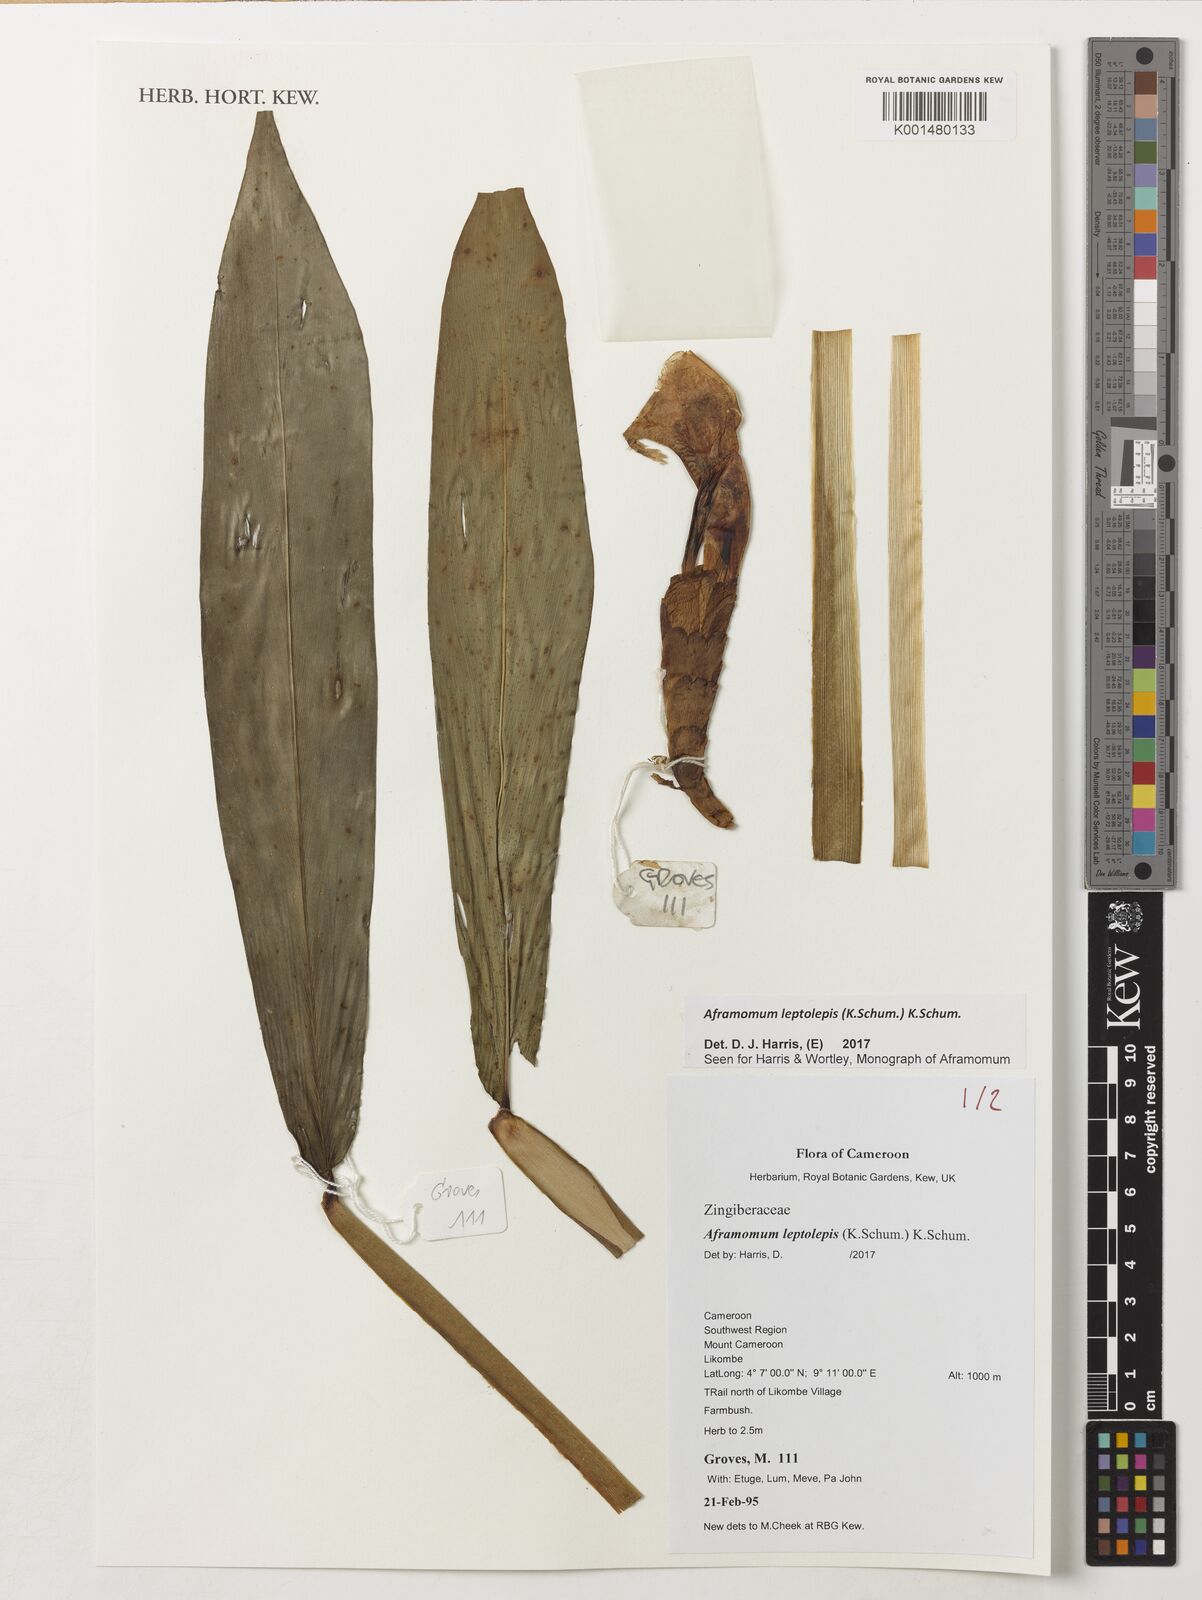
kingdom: Plantae
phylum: Tracheophyta
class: Liliopsida
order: Zingiberales
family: Zingiberaceae
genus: Aframomum
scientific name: Aframomum leptolepis
